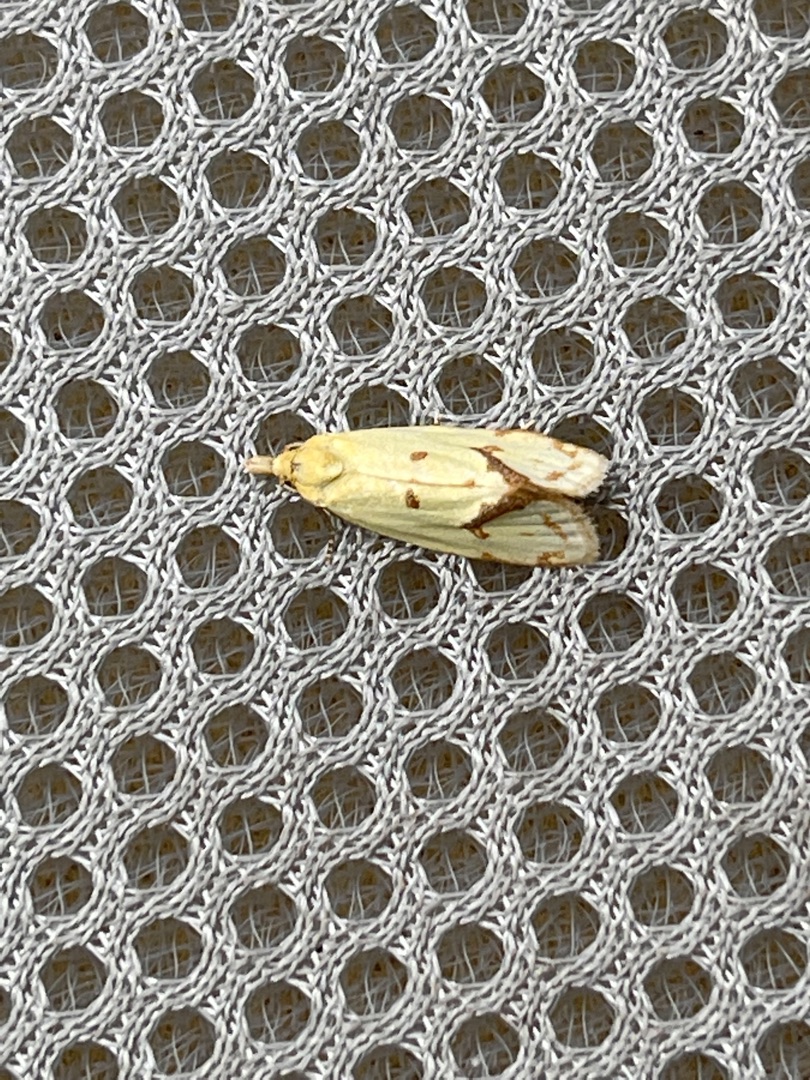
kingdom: Animalia
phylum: Arthropoda
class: Insecta
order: Lepidoptera
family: Tortricidae
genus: Agapeta
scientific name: Agapeta hamana
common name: Tidselgulvikler
